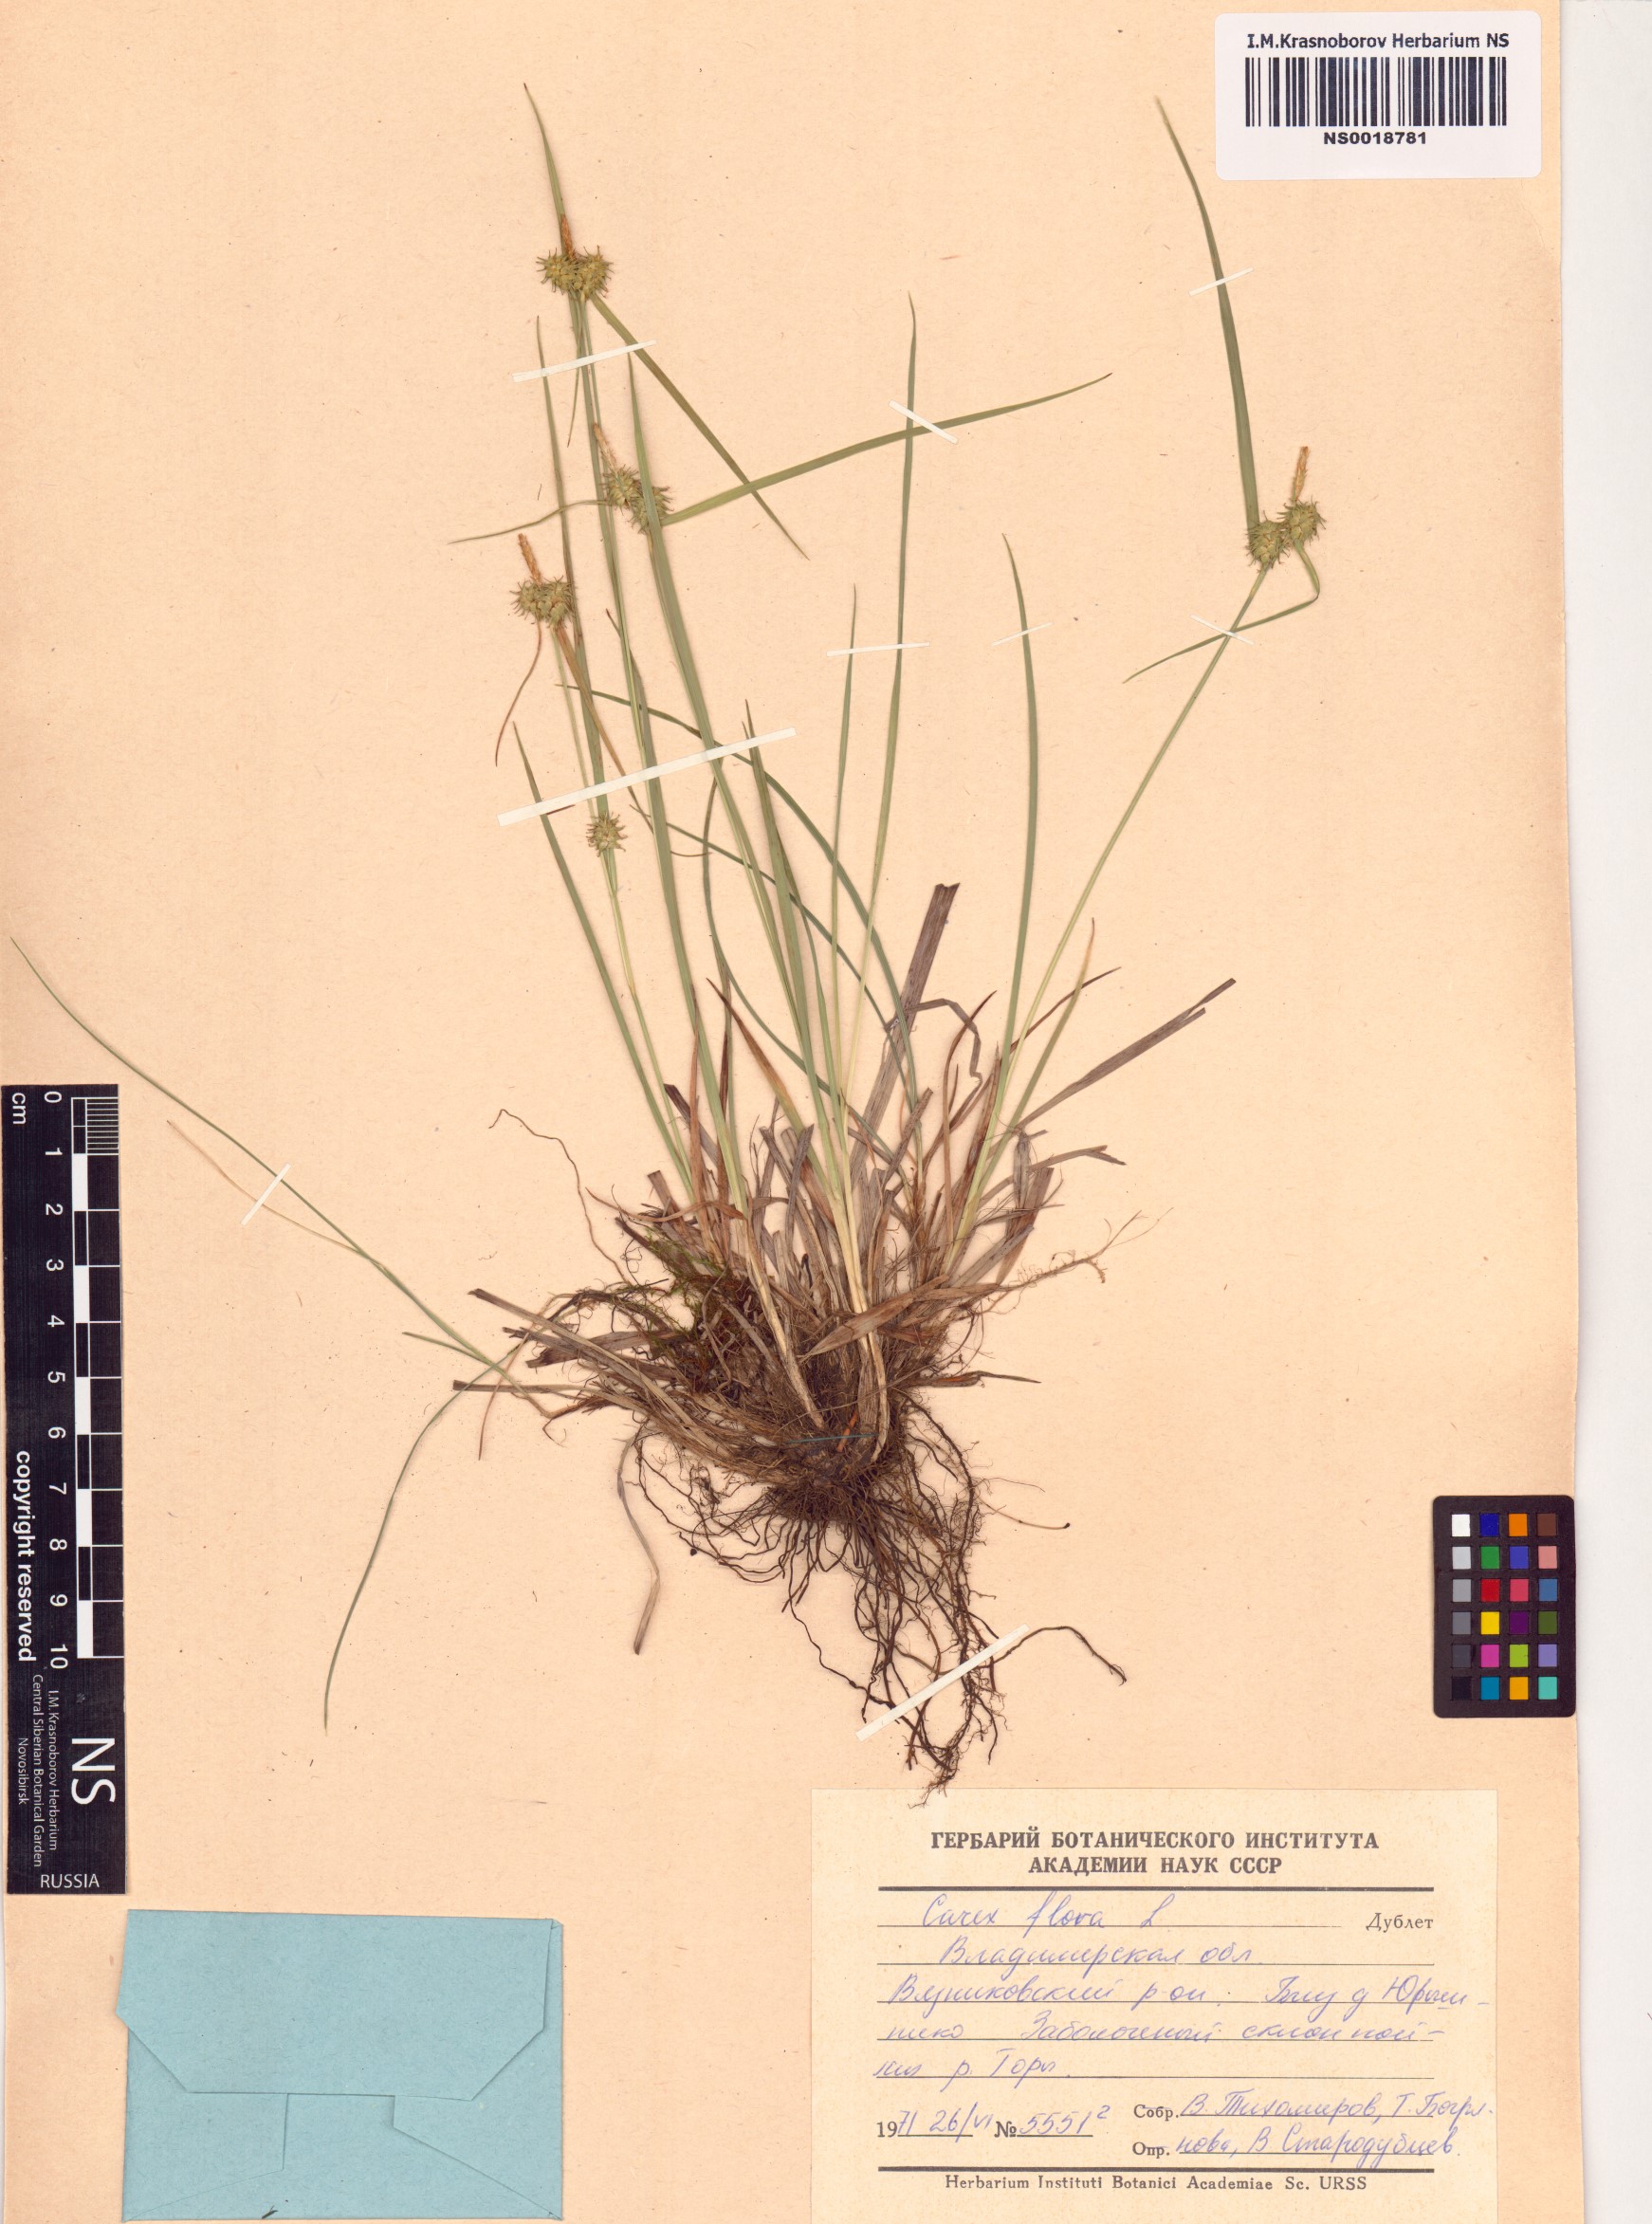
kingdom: Plantae
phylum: Tracheophyta
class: Liliopsida
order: Poales
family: Cyperaceae
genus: Carex
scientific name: Carex flava
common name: Large yellow-sedge
